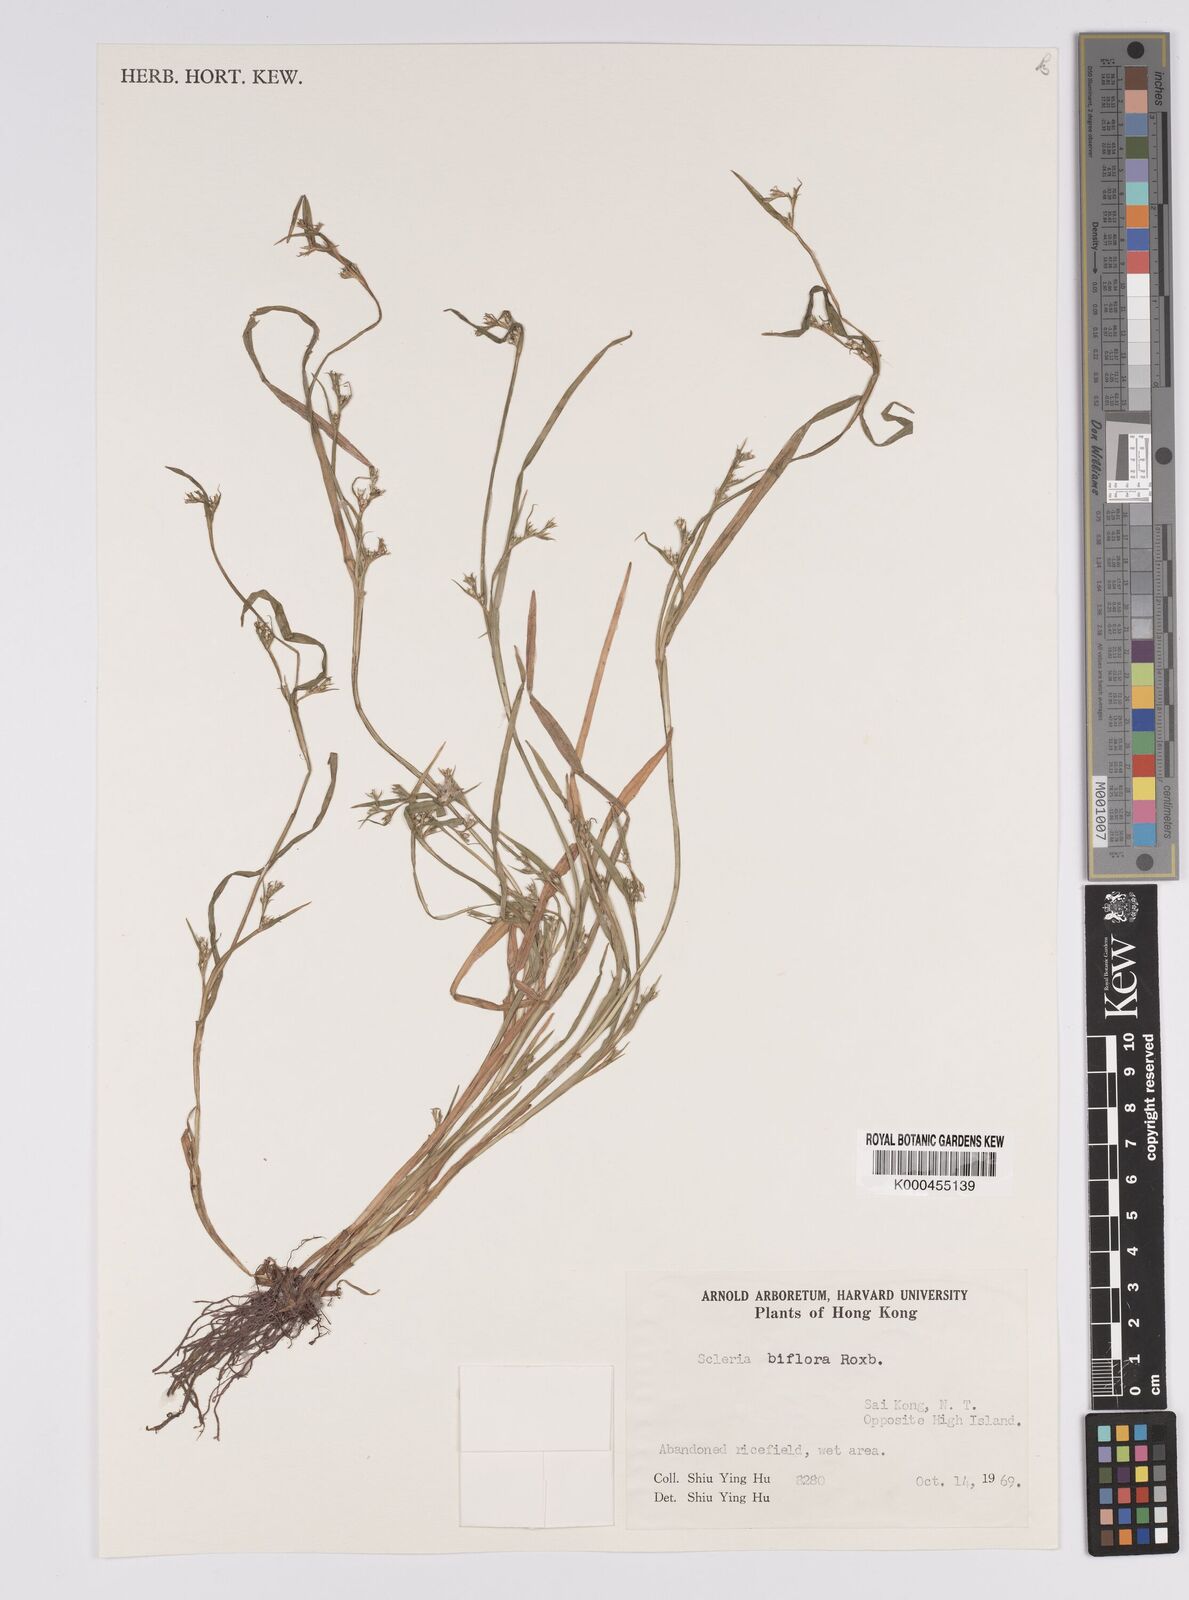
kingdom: Plantae
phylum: Tracheophyta
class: Liliopsida
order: Poales
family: Cyperaceae
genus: Scleria
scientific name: Scleria biflora
